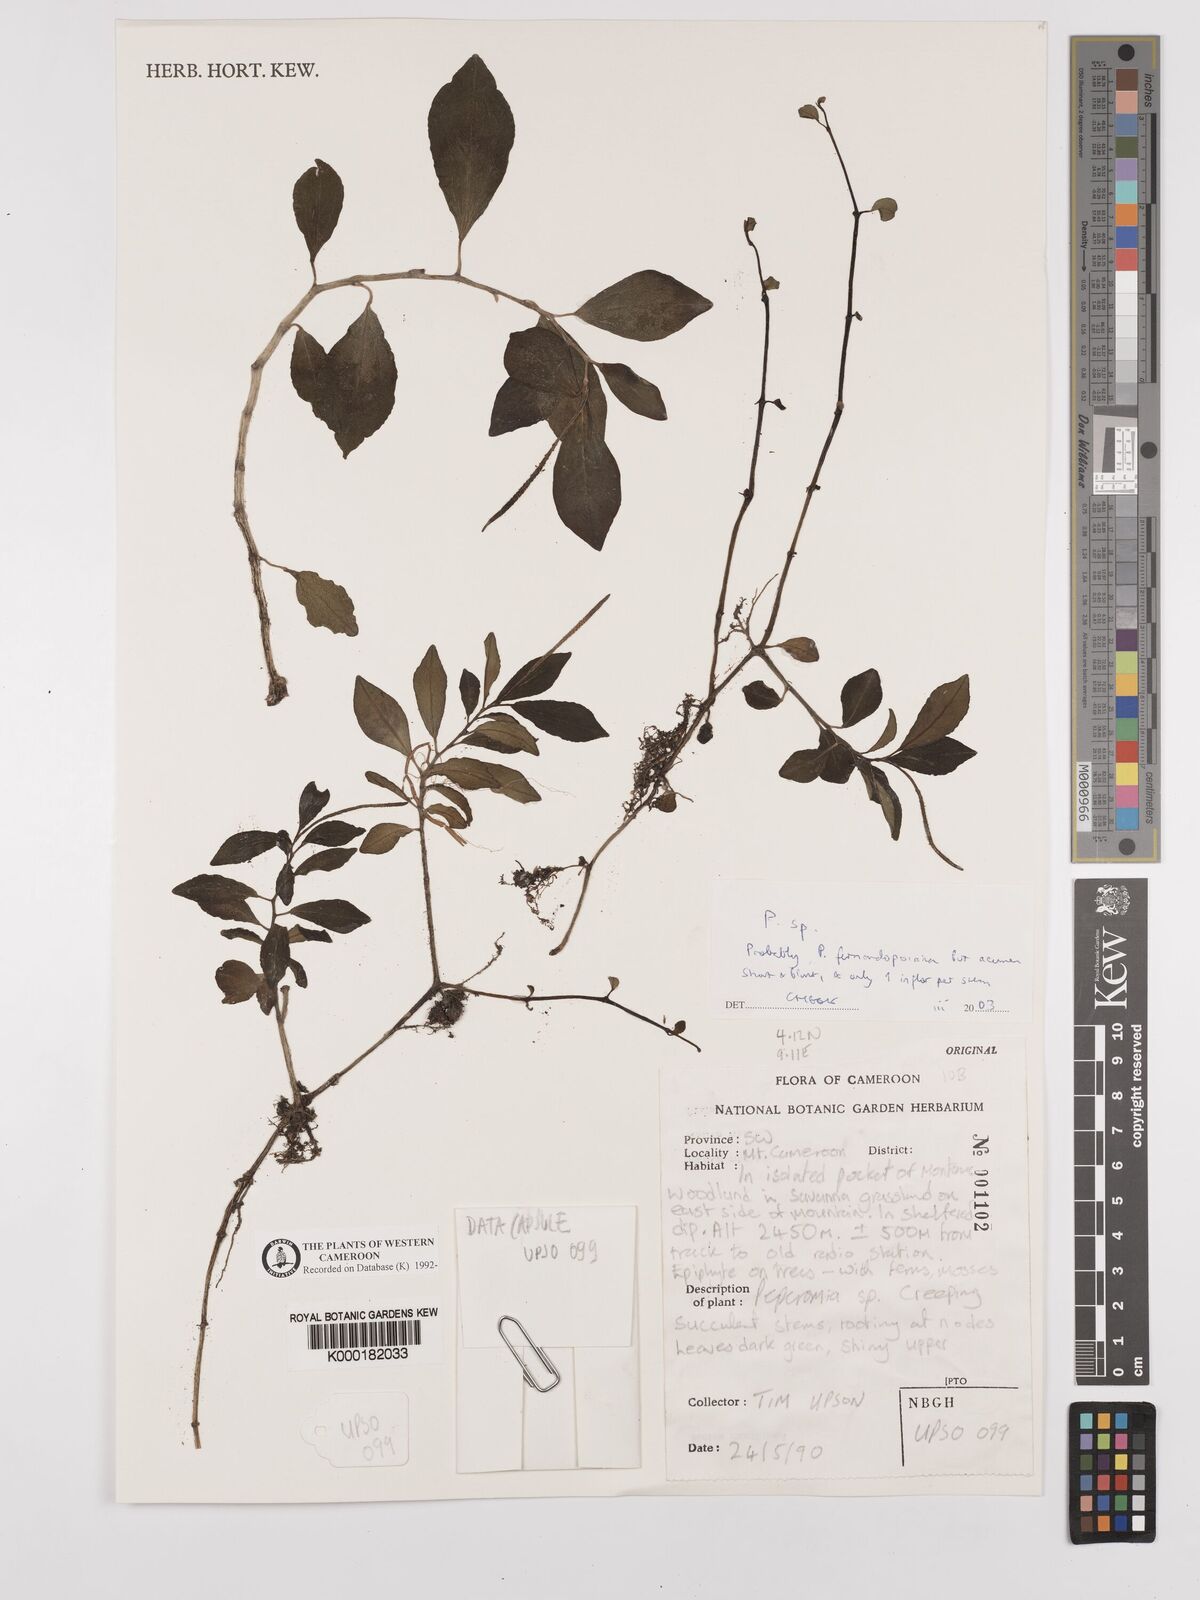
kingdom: Plantae
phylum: Tracheophyta
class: Magnoliopsida
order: Piperales
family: Piperaceae
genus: Peperomia
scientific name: Peperomia
